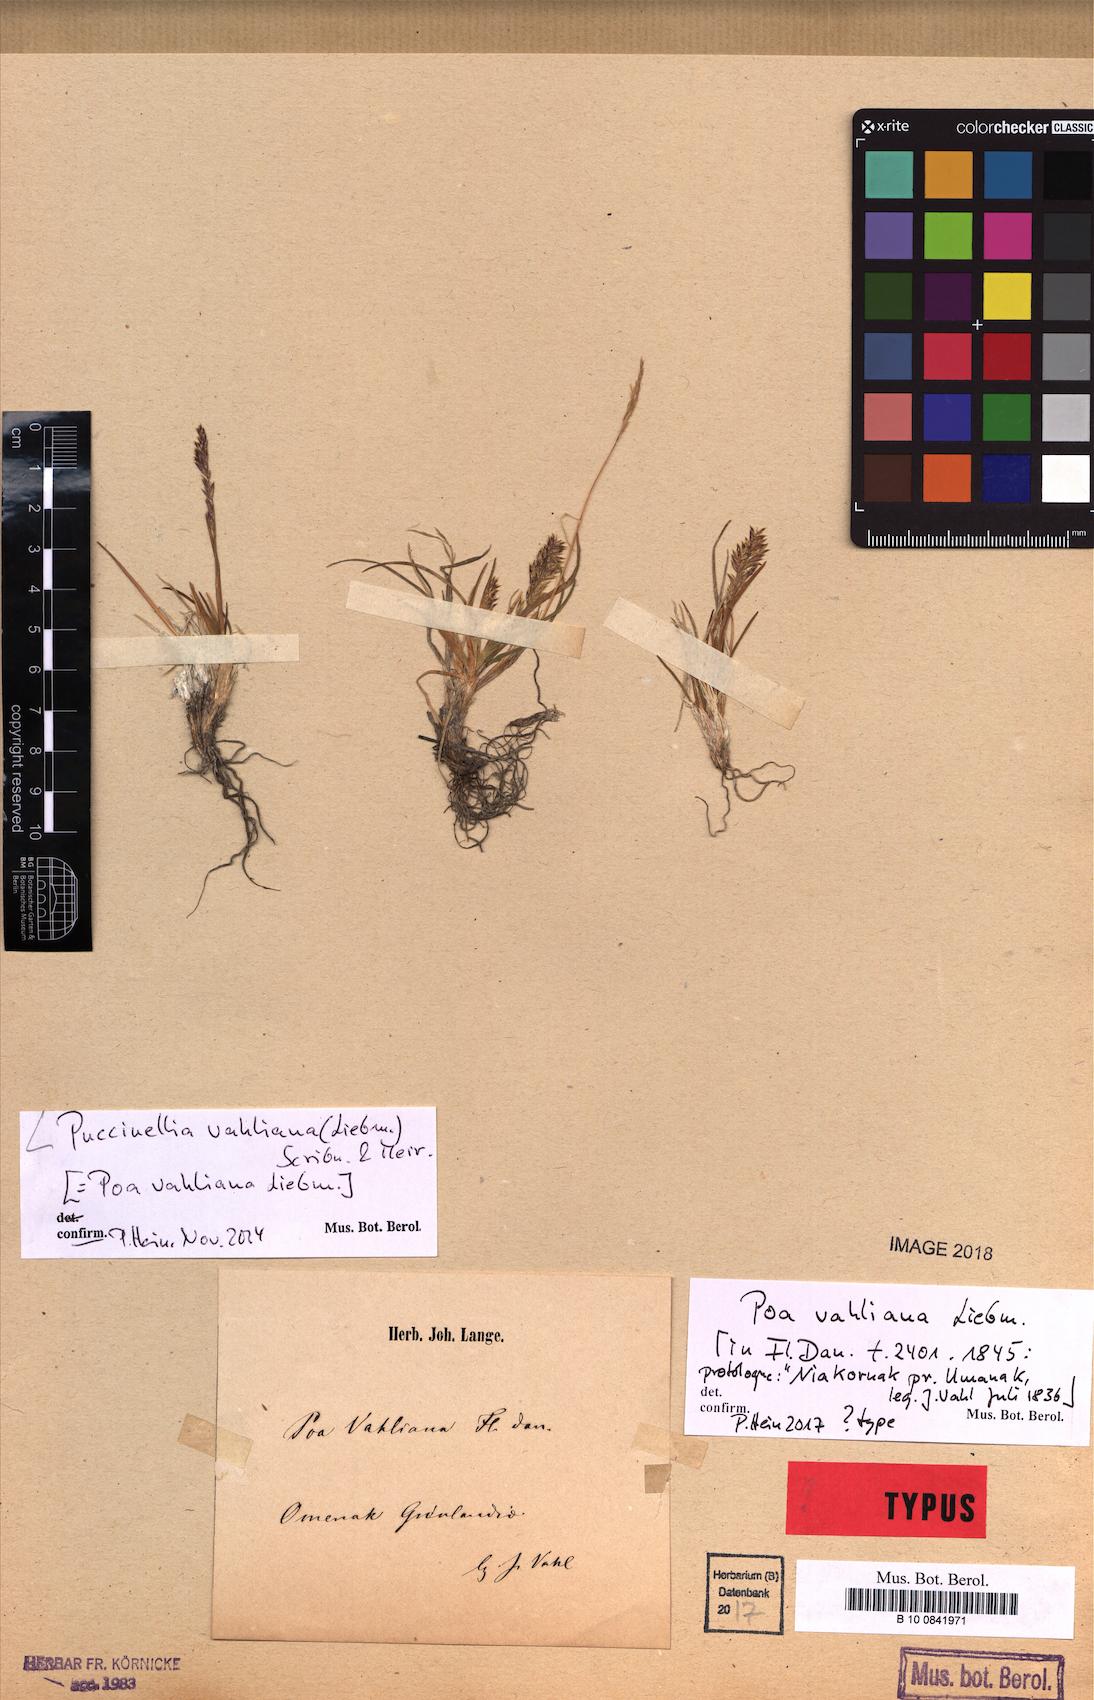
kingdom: Plantae
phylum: Tracheophyta
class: Liliopsida
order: Poales
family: Poaceae
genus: Puccinellia
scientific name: Puccinellia vahliana
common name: Vahl's alkaligrass
